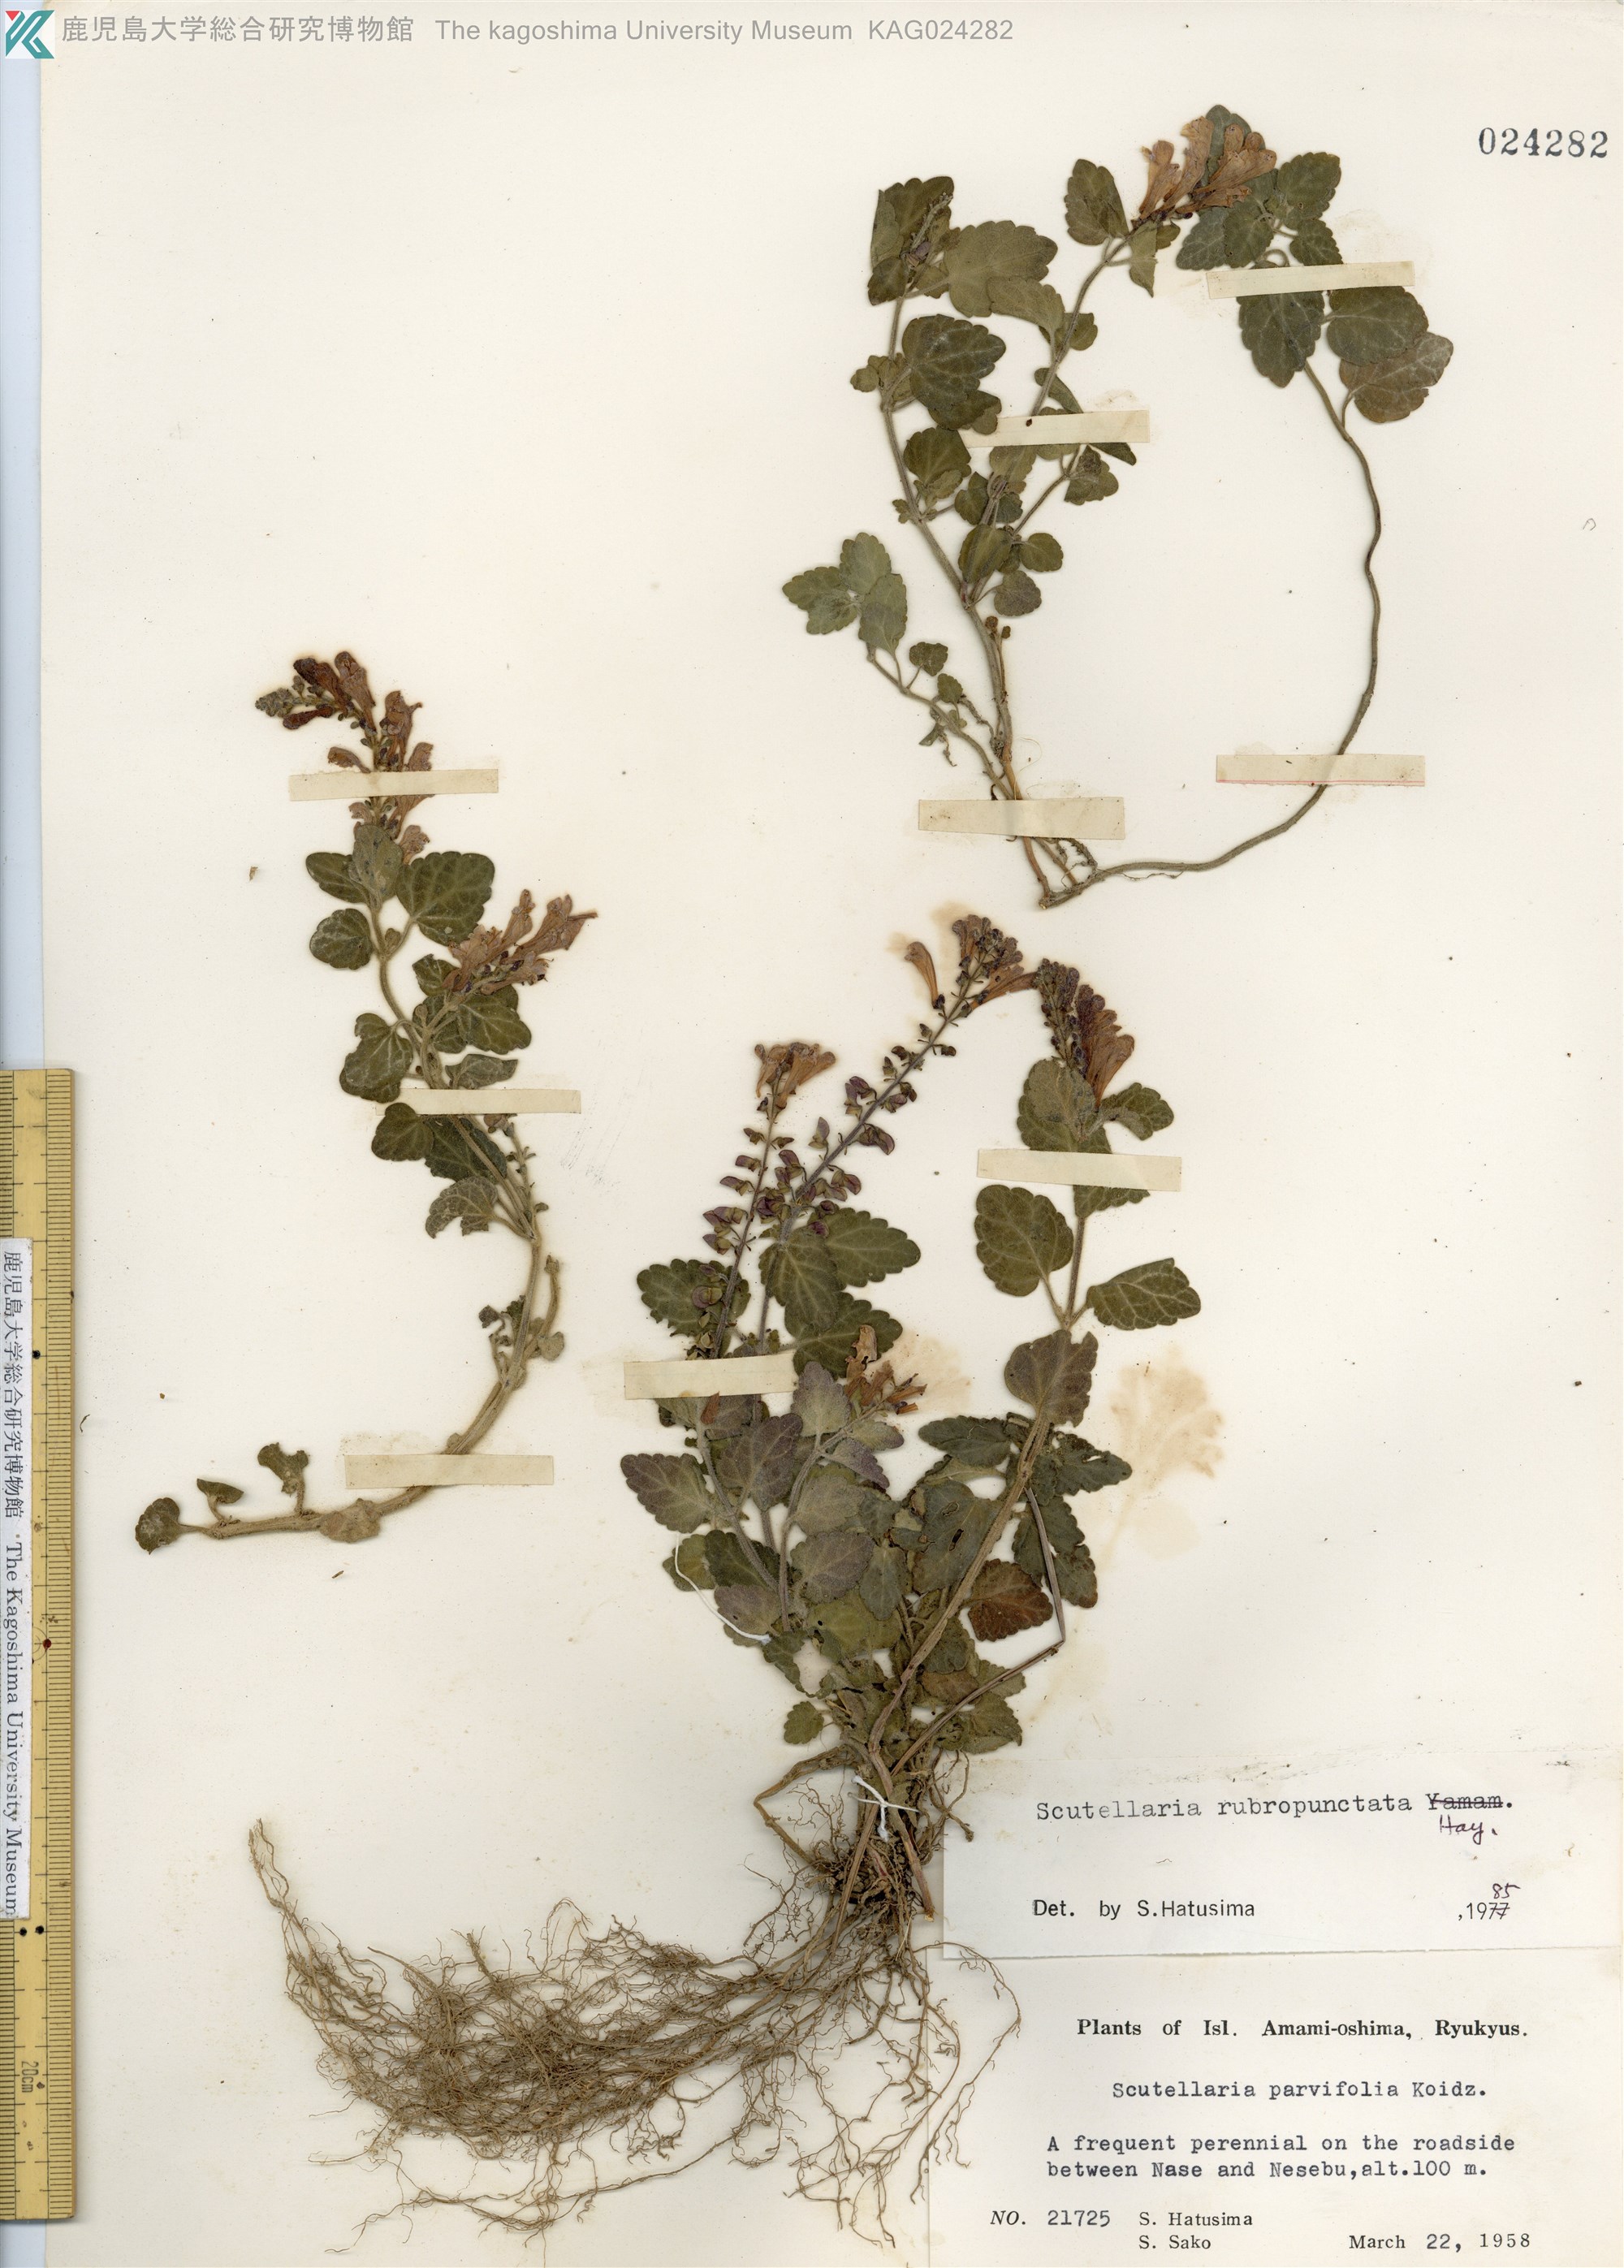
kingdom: Plantae
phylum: Tracheophyta
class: Magnoliopsida
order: Lamiales
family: Lamiaceae
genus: Scutellaria
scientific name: Scutellaria rubropunctata
